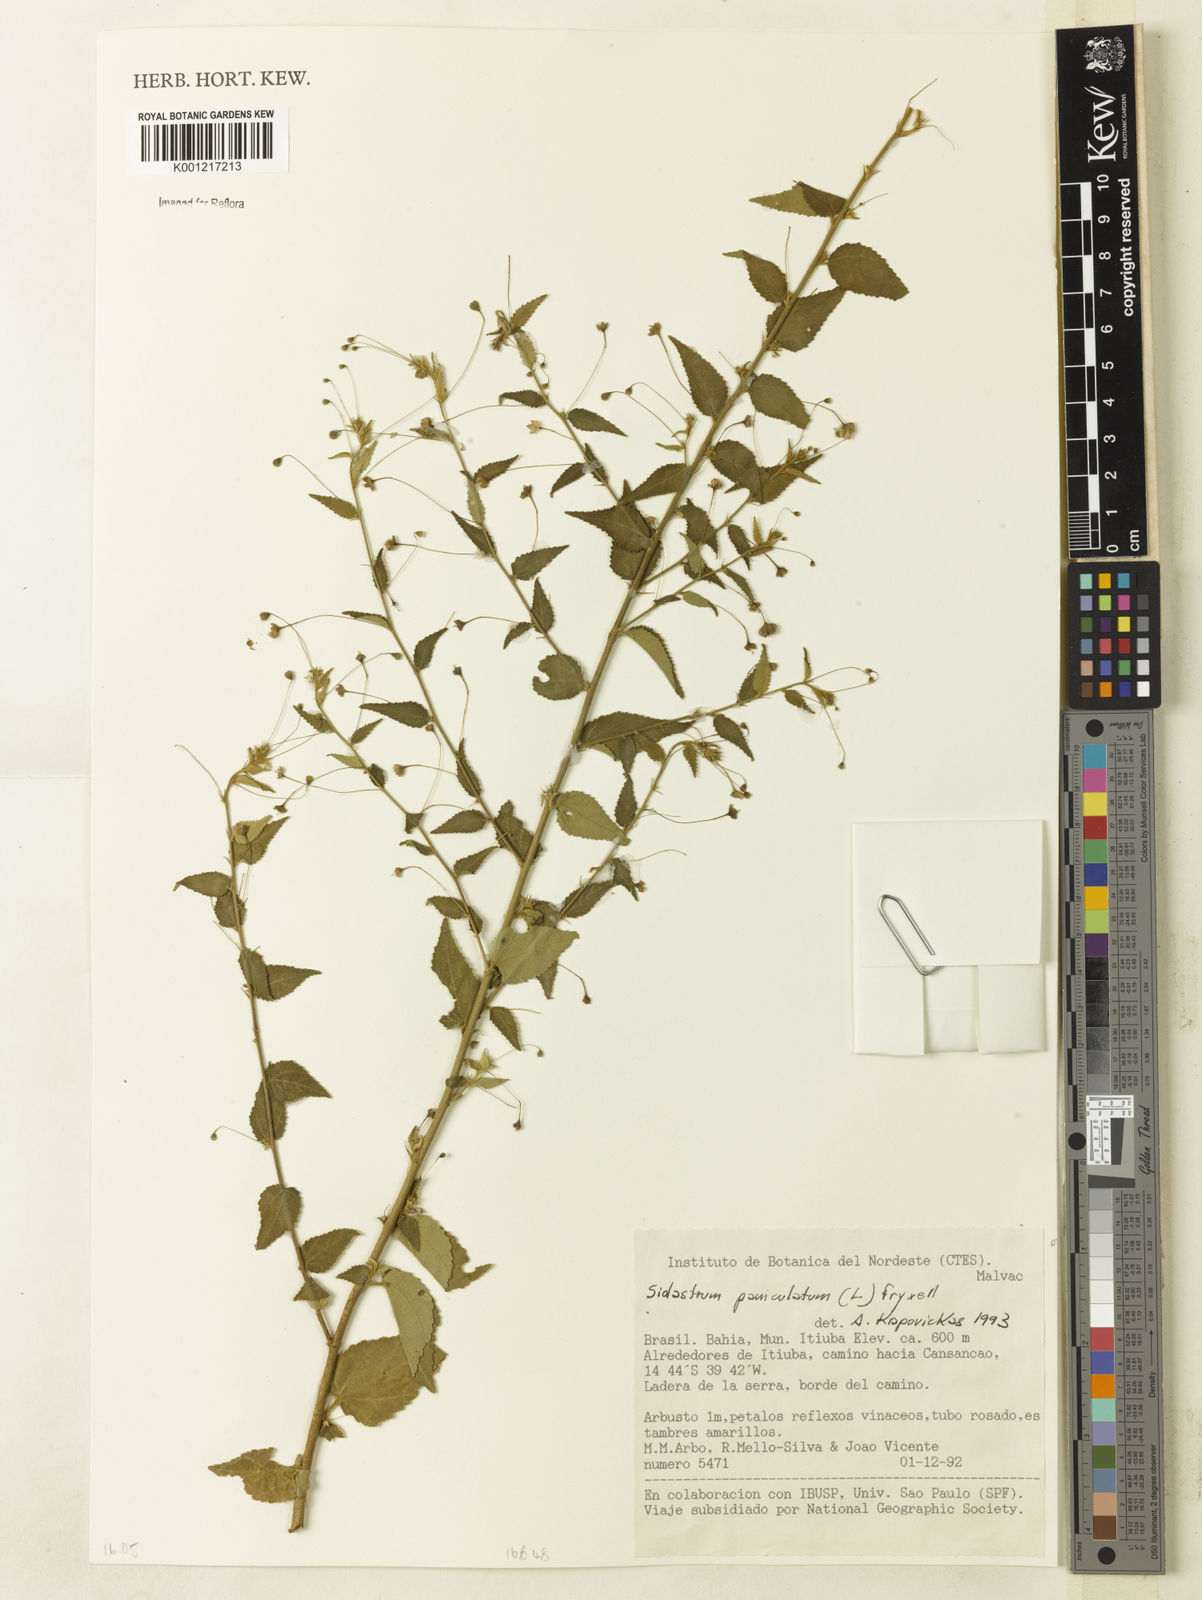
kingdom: Plantae
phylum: Tracheophyta
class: Magnoliopsida
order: Malvales
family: Malvaceae
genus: Sidastrum
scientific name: Sidastrum paniculatum
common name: Panicled sandmallow
